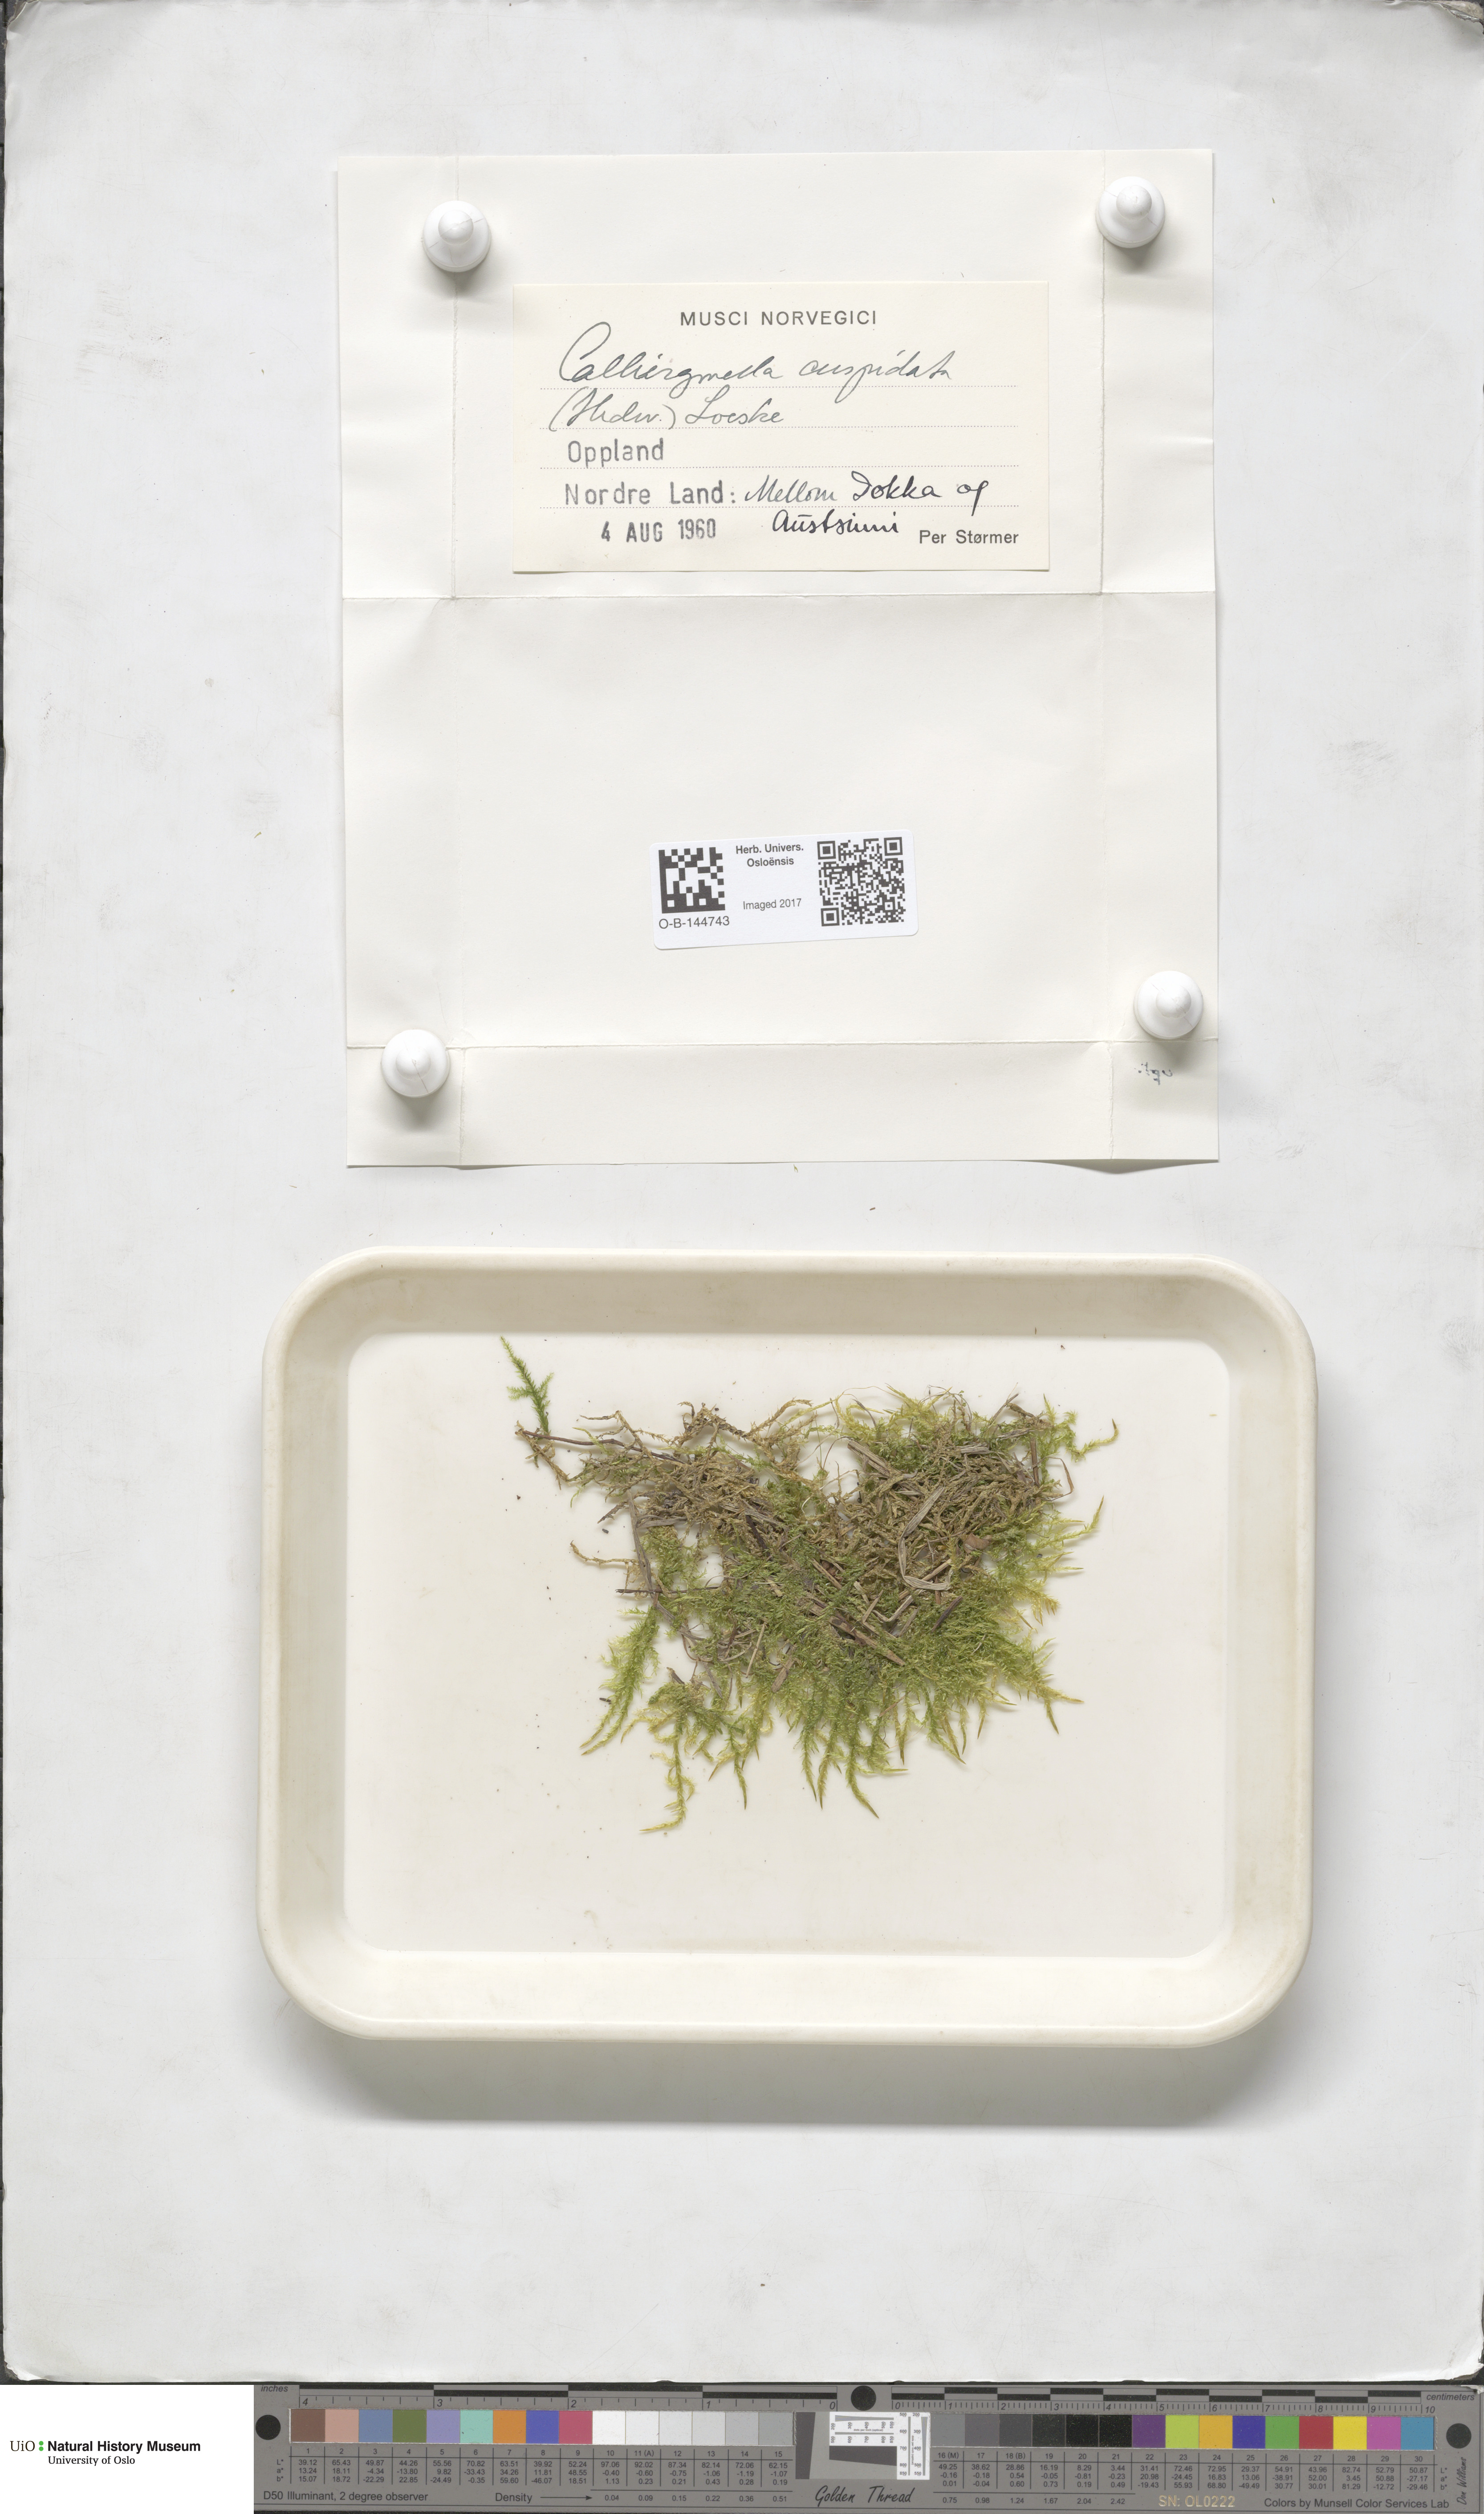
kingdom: Plantae
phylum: Bryophyta
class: Bryopsida
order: Hypnales
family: Pylaisiaceae
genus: Calliergonella
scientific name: Calliergonella cuspidata
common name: Common large wetland moss
